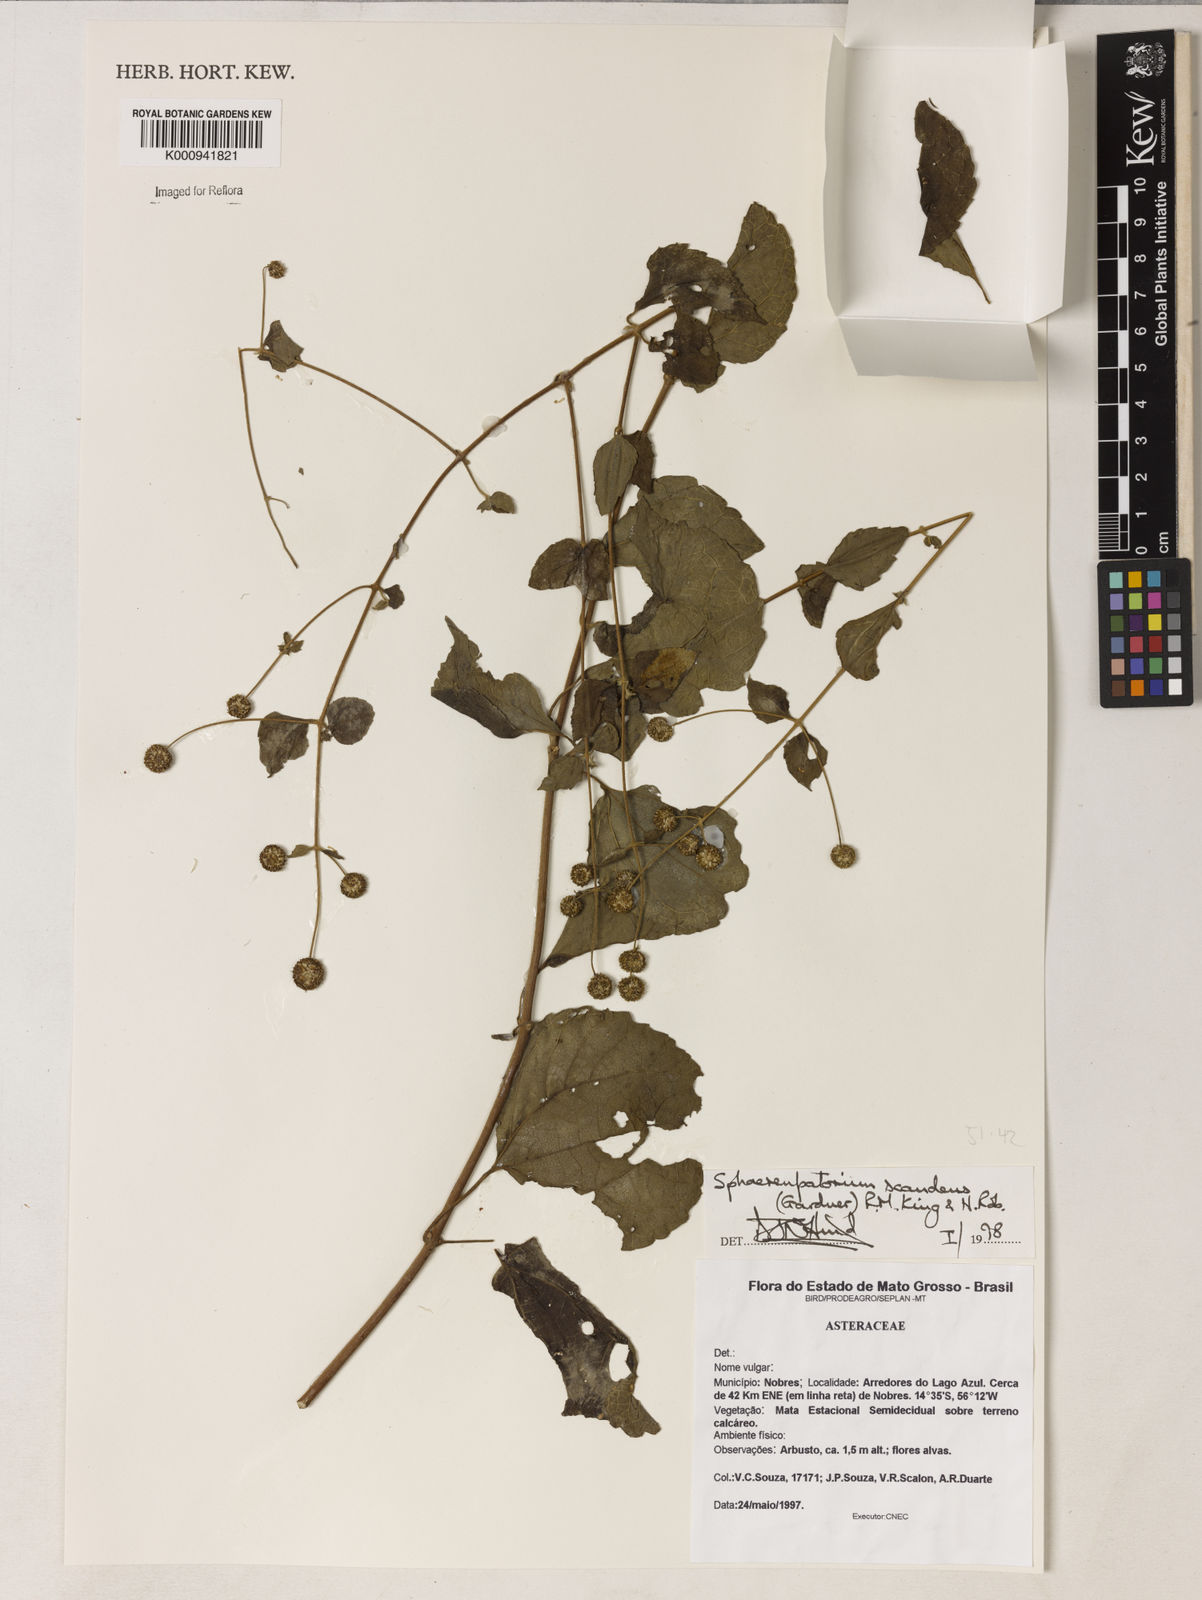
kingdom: Plantae
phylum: Tracheophyta
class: Magnoliopsida
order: Asterales
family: Asteraceae
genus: Sphaereupatorium
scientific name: Sphaereupatorium scandens
